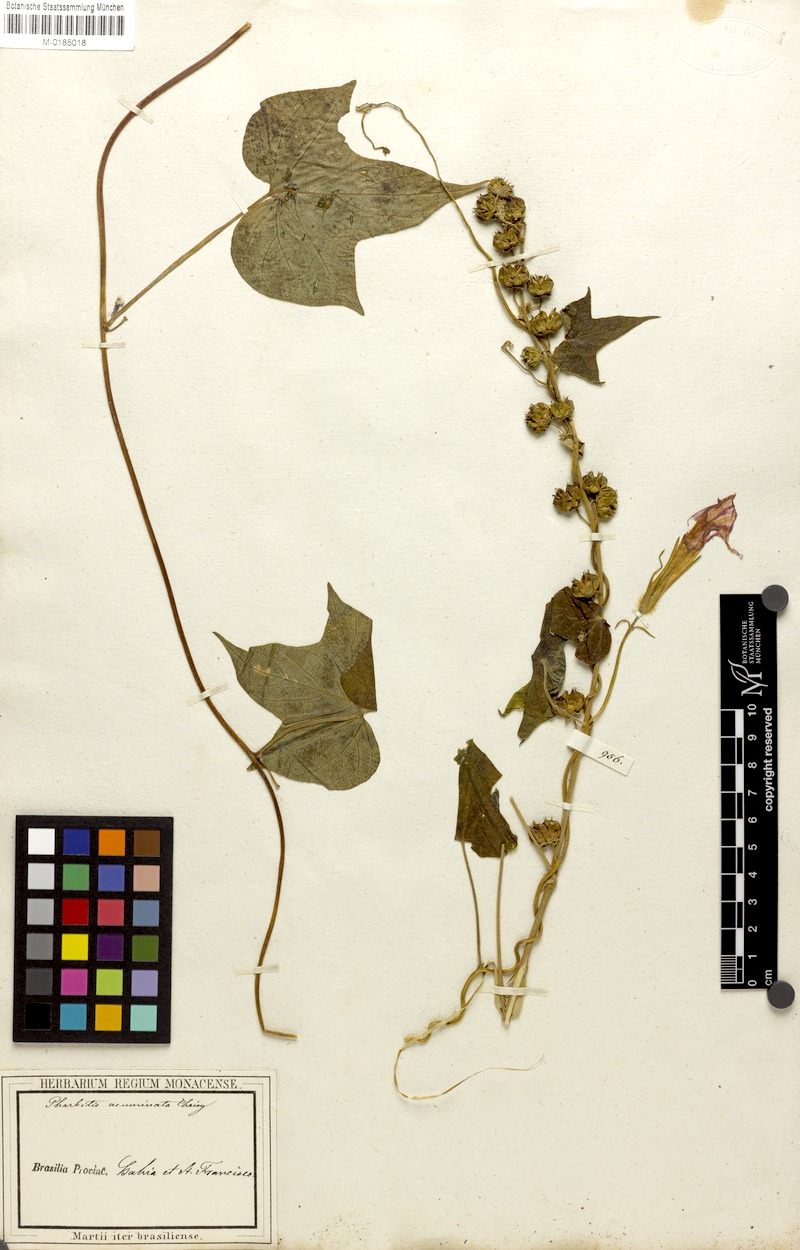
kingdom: Plantae
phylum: Tracheophyta
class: Magnoliopsida
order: Solanales
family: Convolvulaceae
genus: Ipomoea
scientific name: Ipomoea indica
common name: Blue dawnflower
